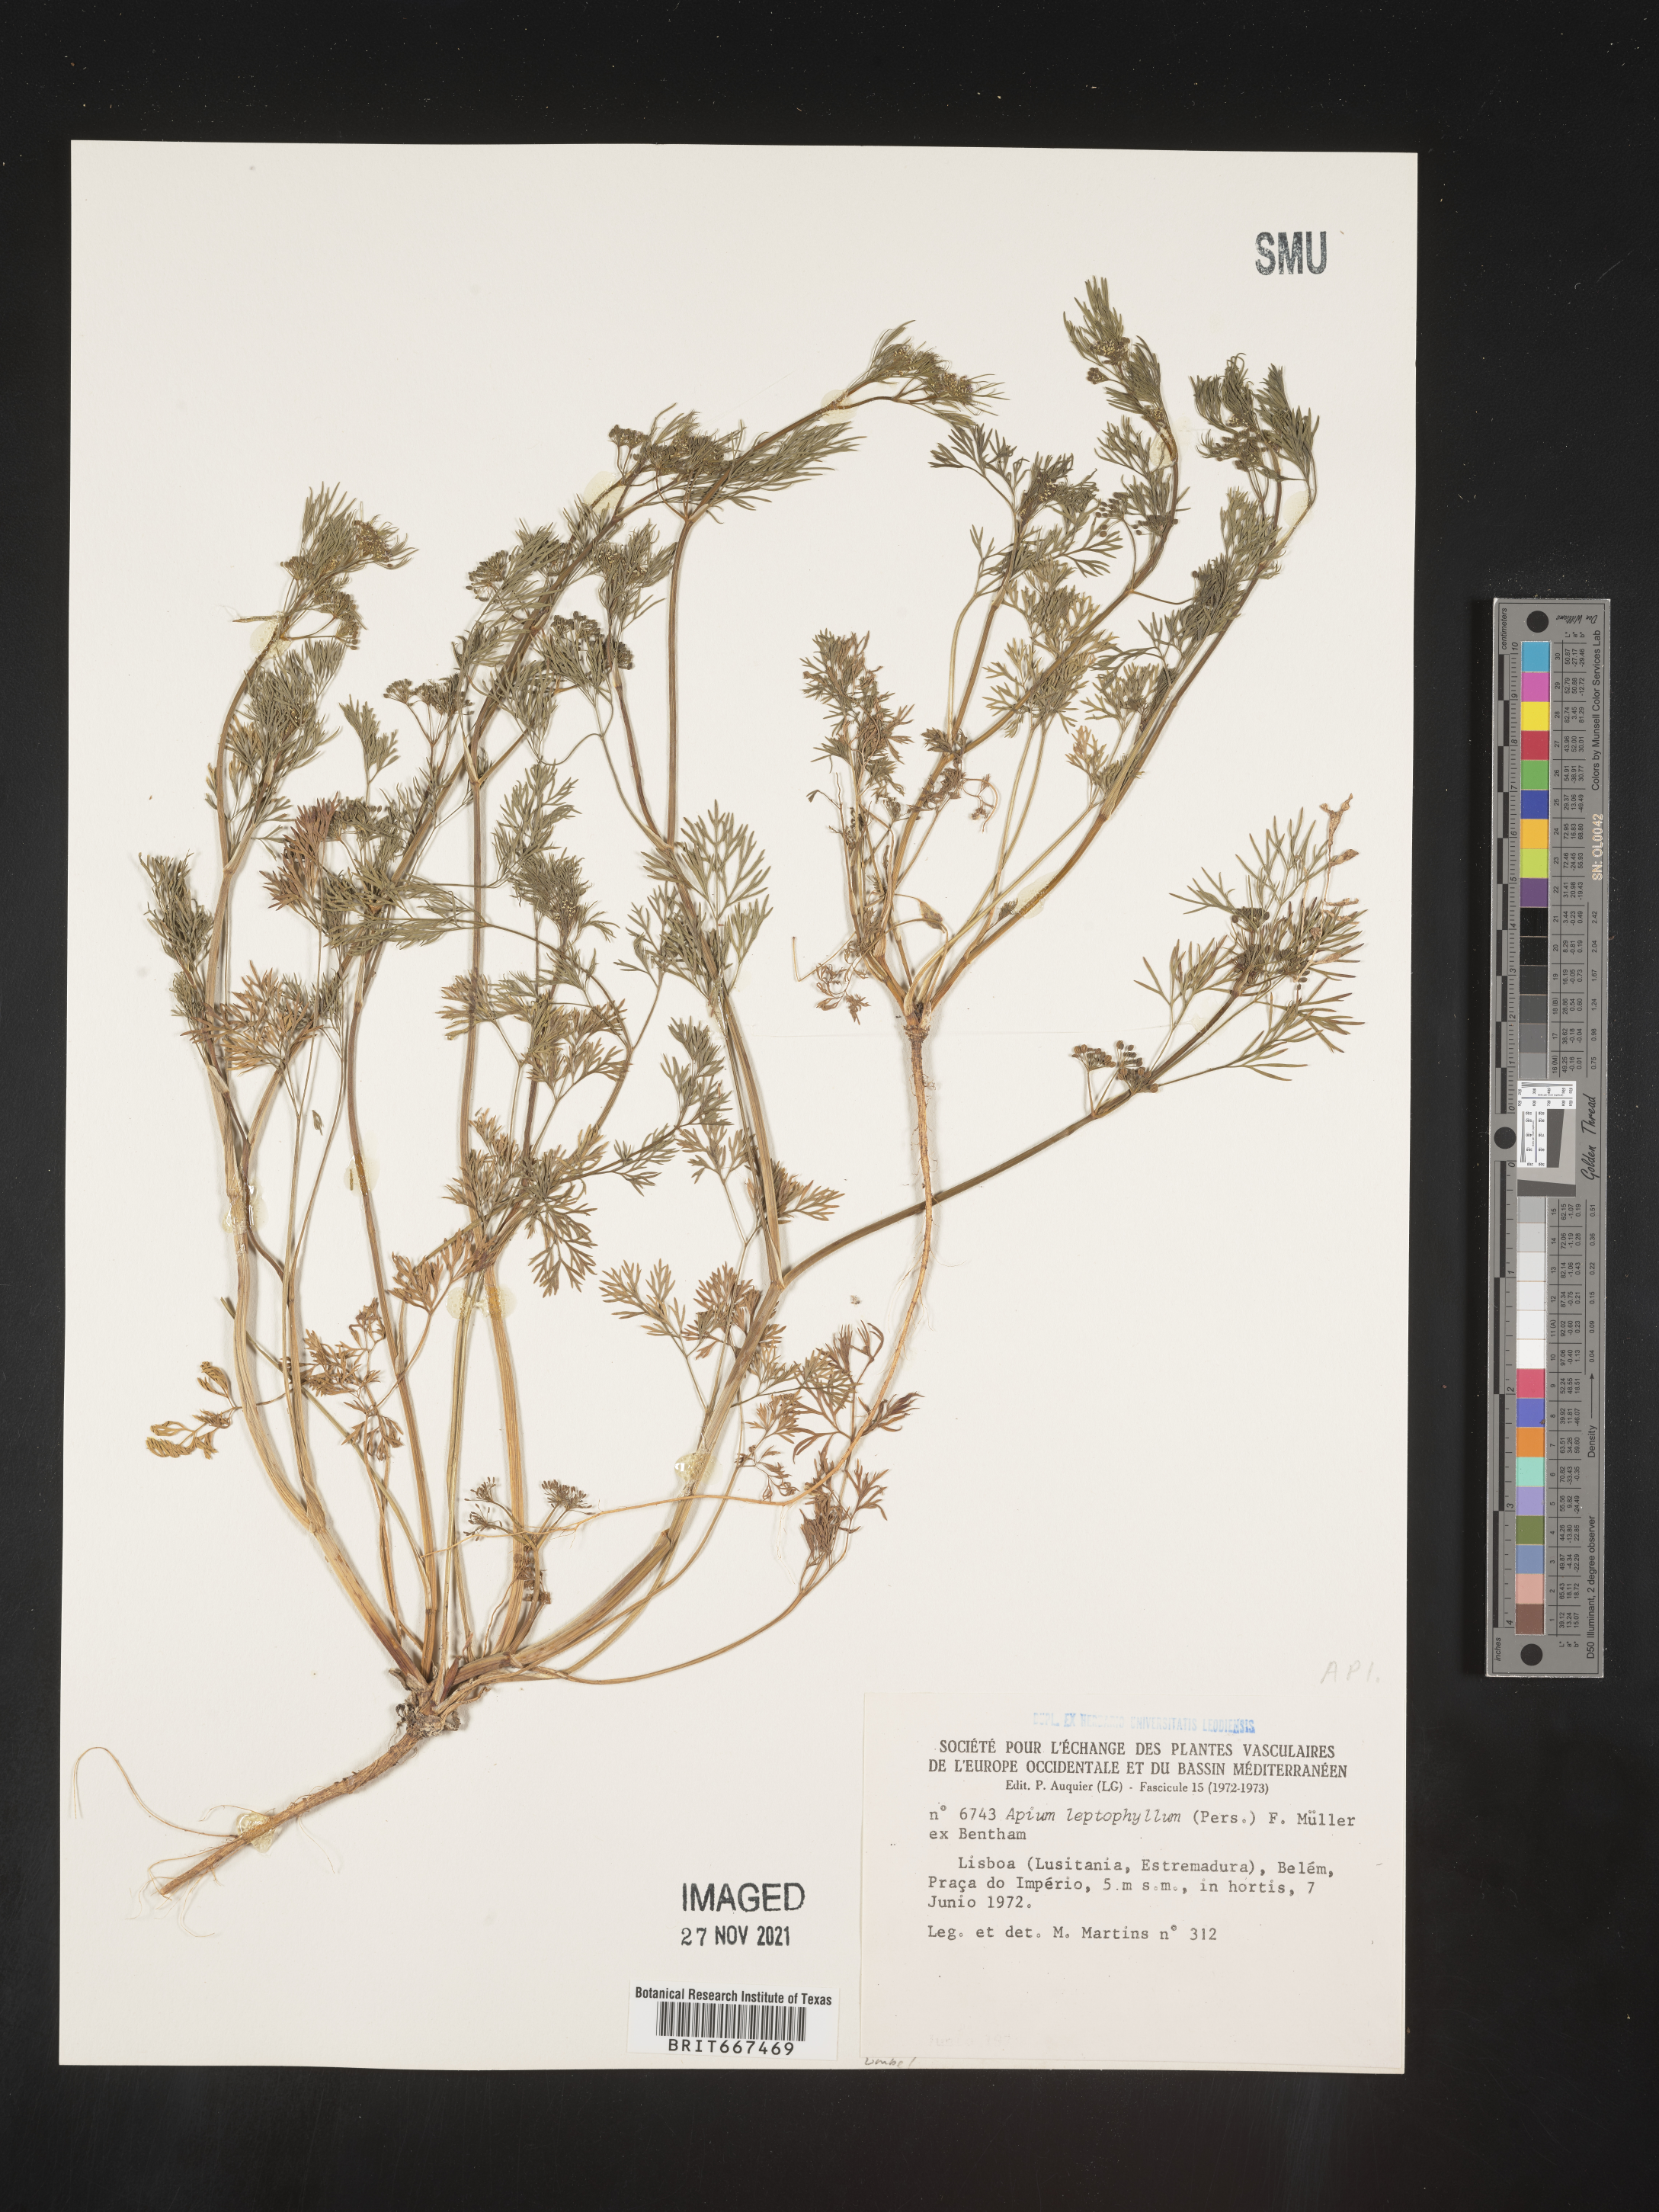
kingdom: Plantae
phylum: Tracheophyta
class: Magnoliopsida
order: Apiales
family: Apiaceae
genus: Apium
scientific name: Apium
